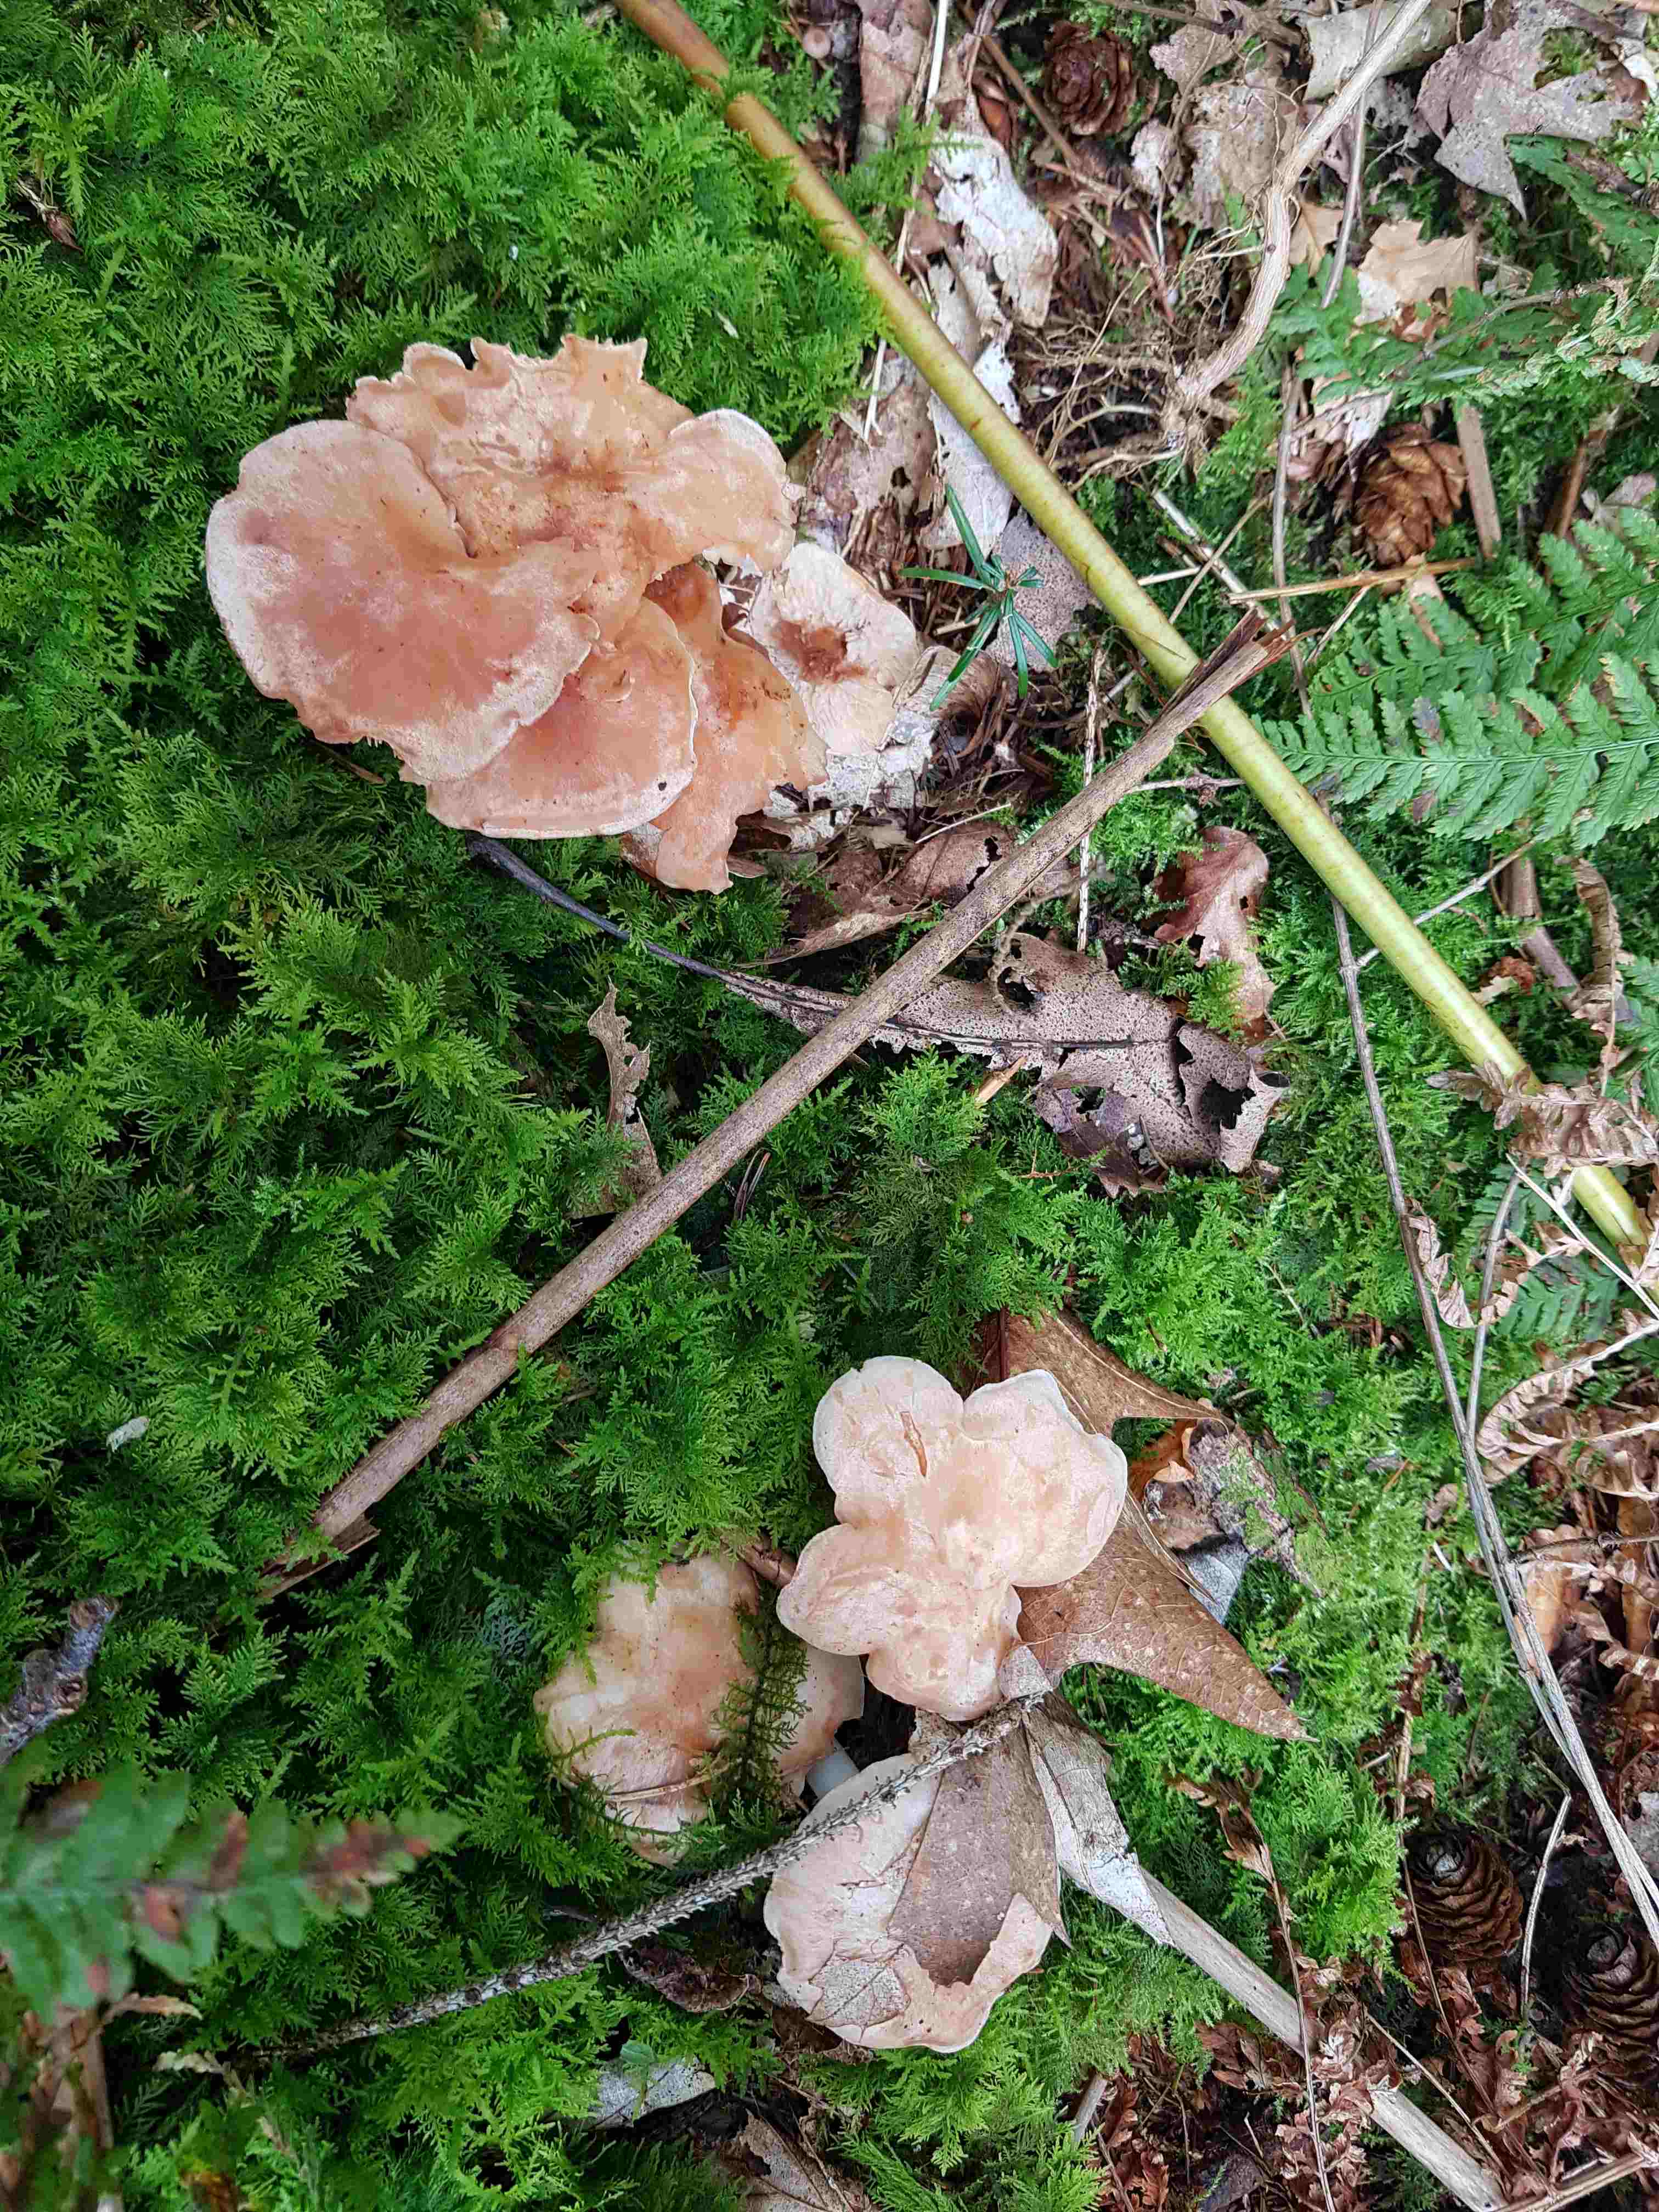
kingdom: Fungi
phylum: Basidiomycota
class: Agaricomycetes
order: Agaricales
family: Omphalotaceae
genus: Rhodocollybia
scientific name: Rhodocollybia maculata
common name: plettet fladhat
